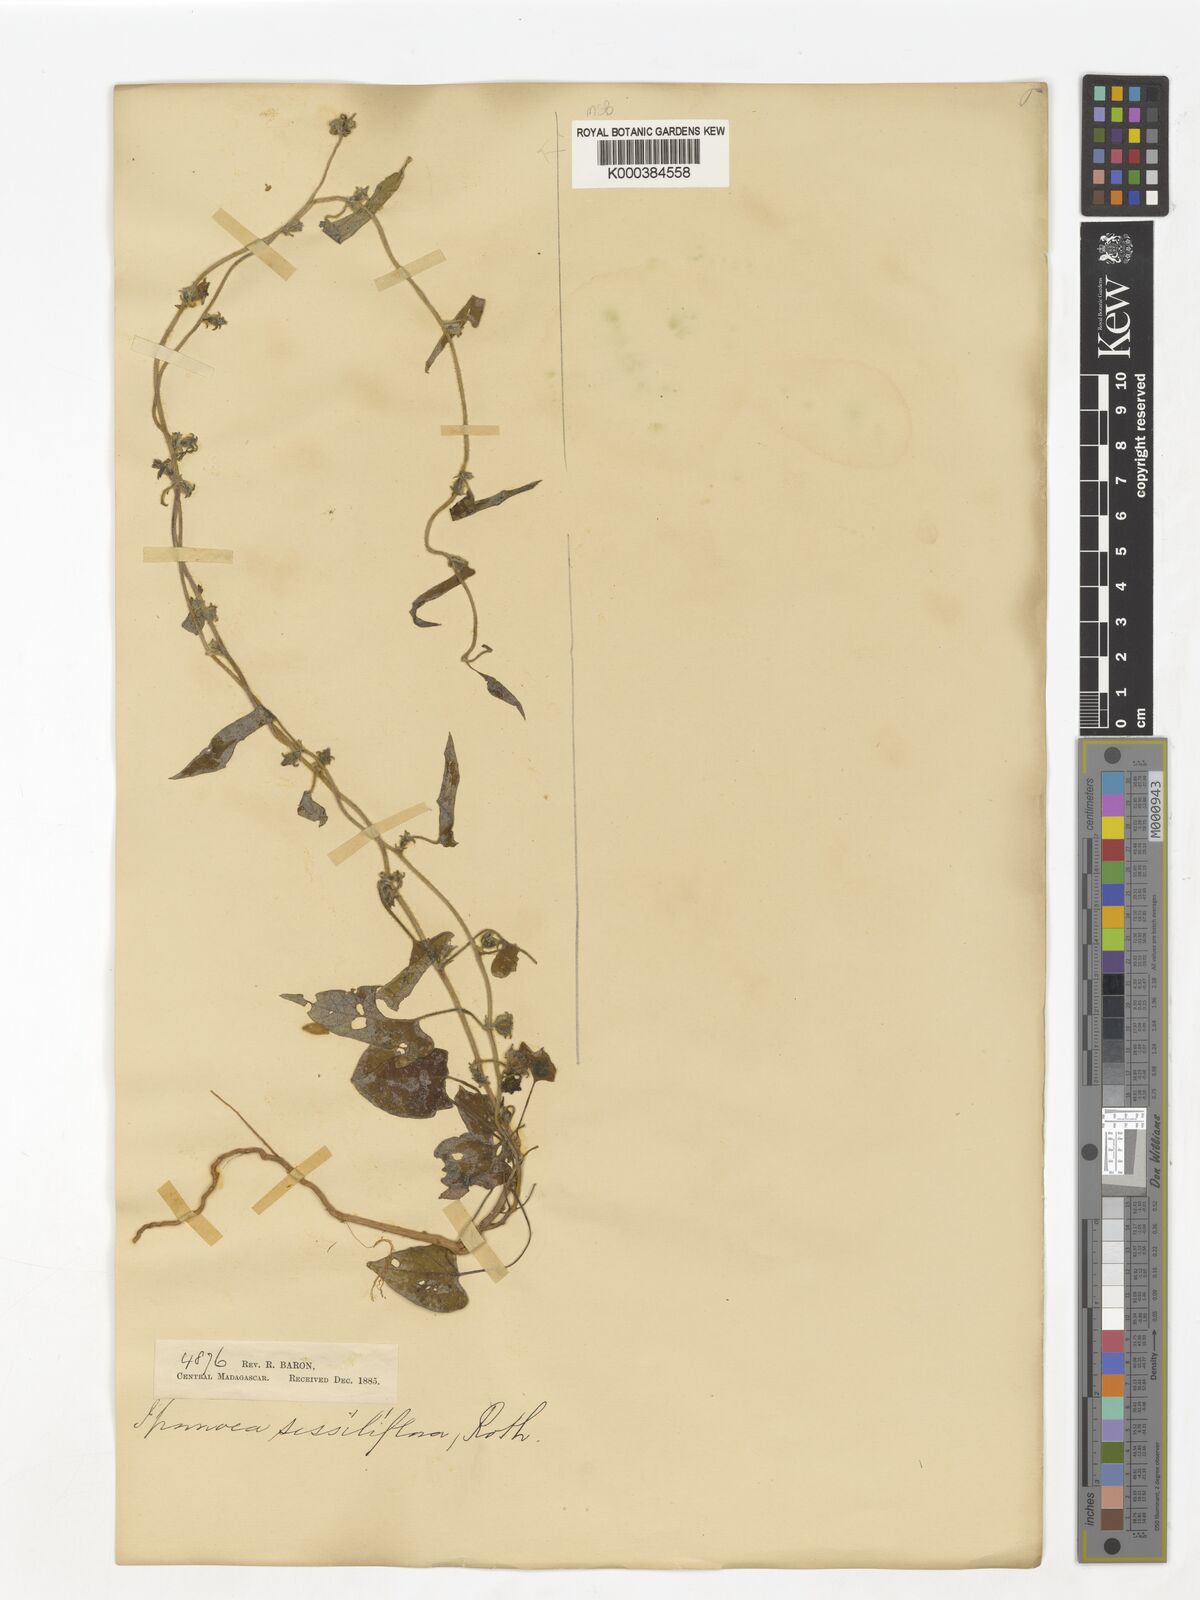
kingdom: Plantae
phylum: Tracheophyta
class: Magnoliopsida
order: Solanales
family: Convolvulaceae
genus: Ipomoea
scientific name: Ipomoea eriocarpa
